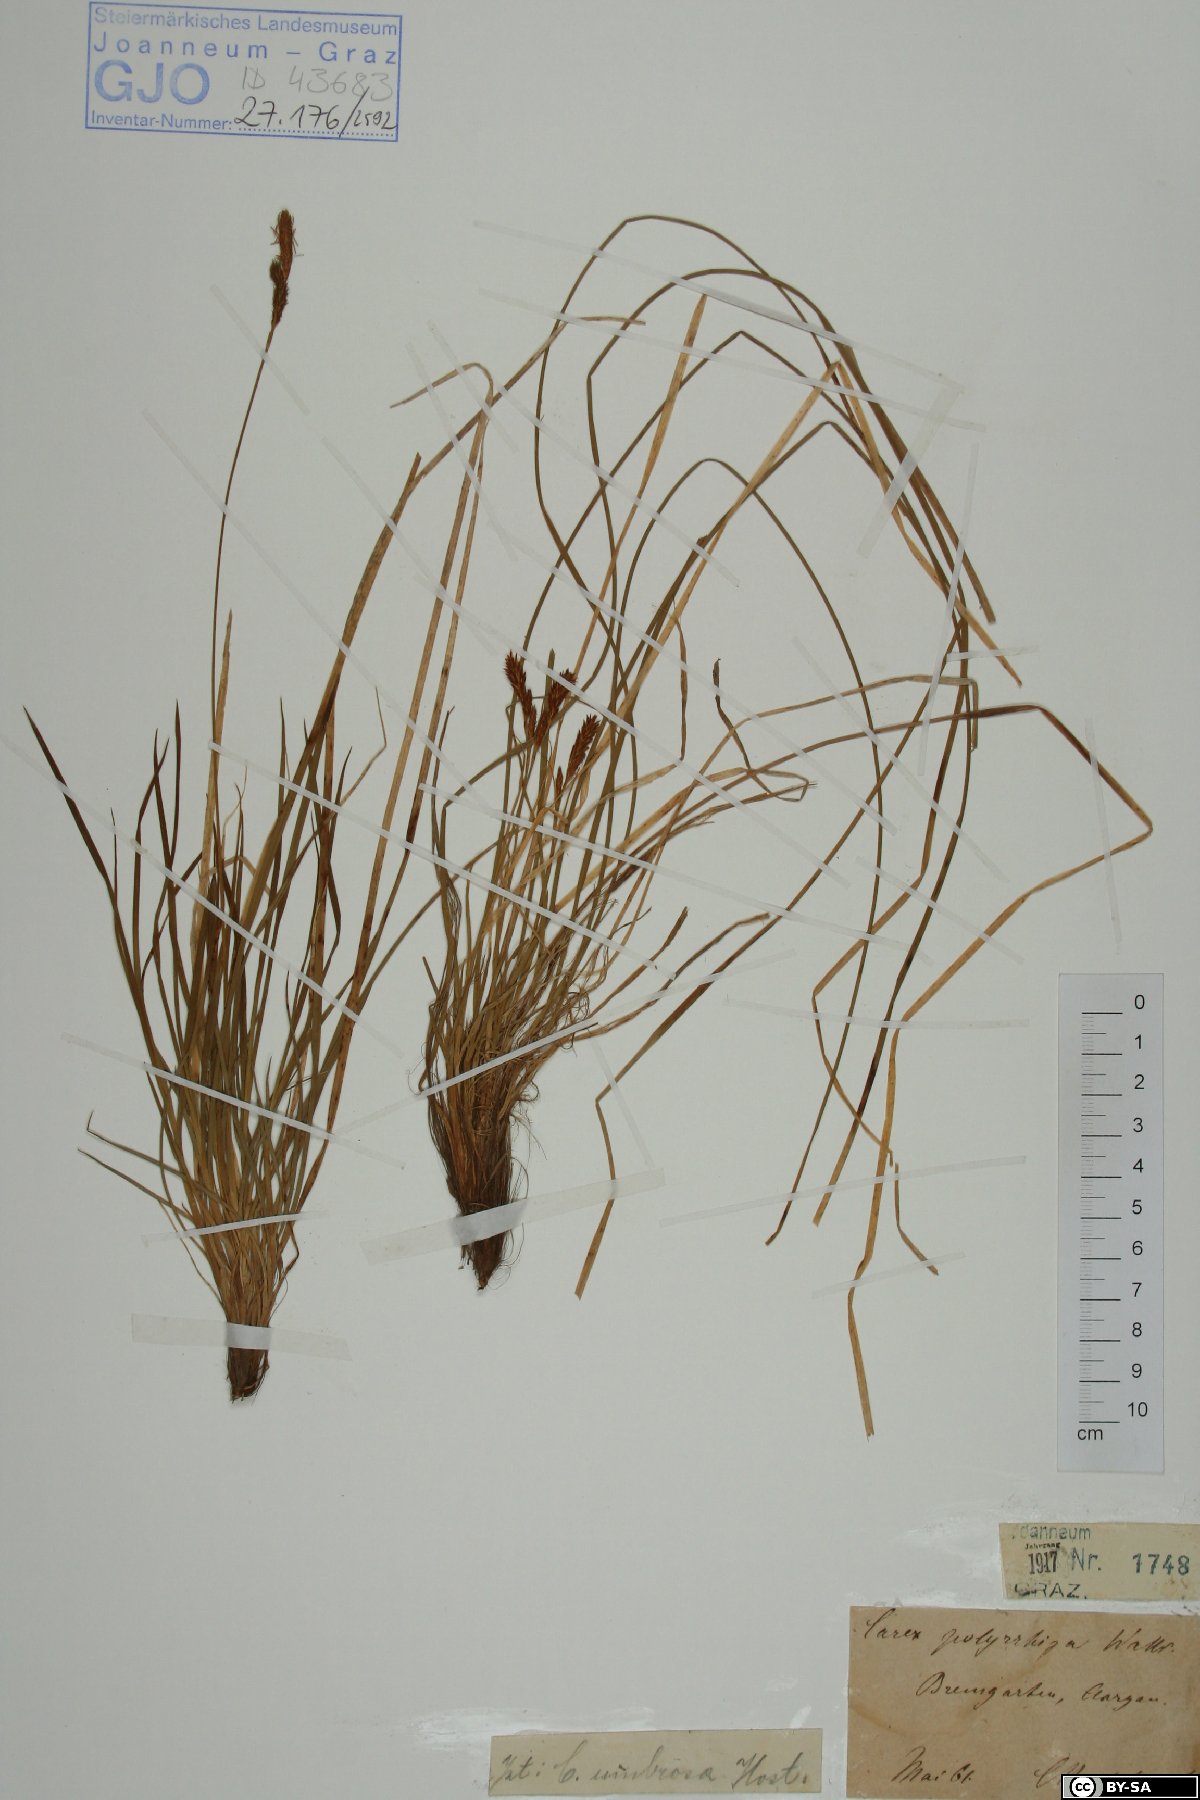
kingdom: Plantae
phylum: Tracheophyta
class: Liliopsida
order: Poales
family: Cyperaceae
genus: Carex
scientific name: Carex umbrosa
